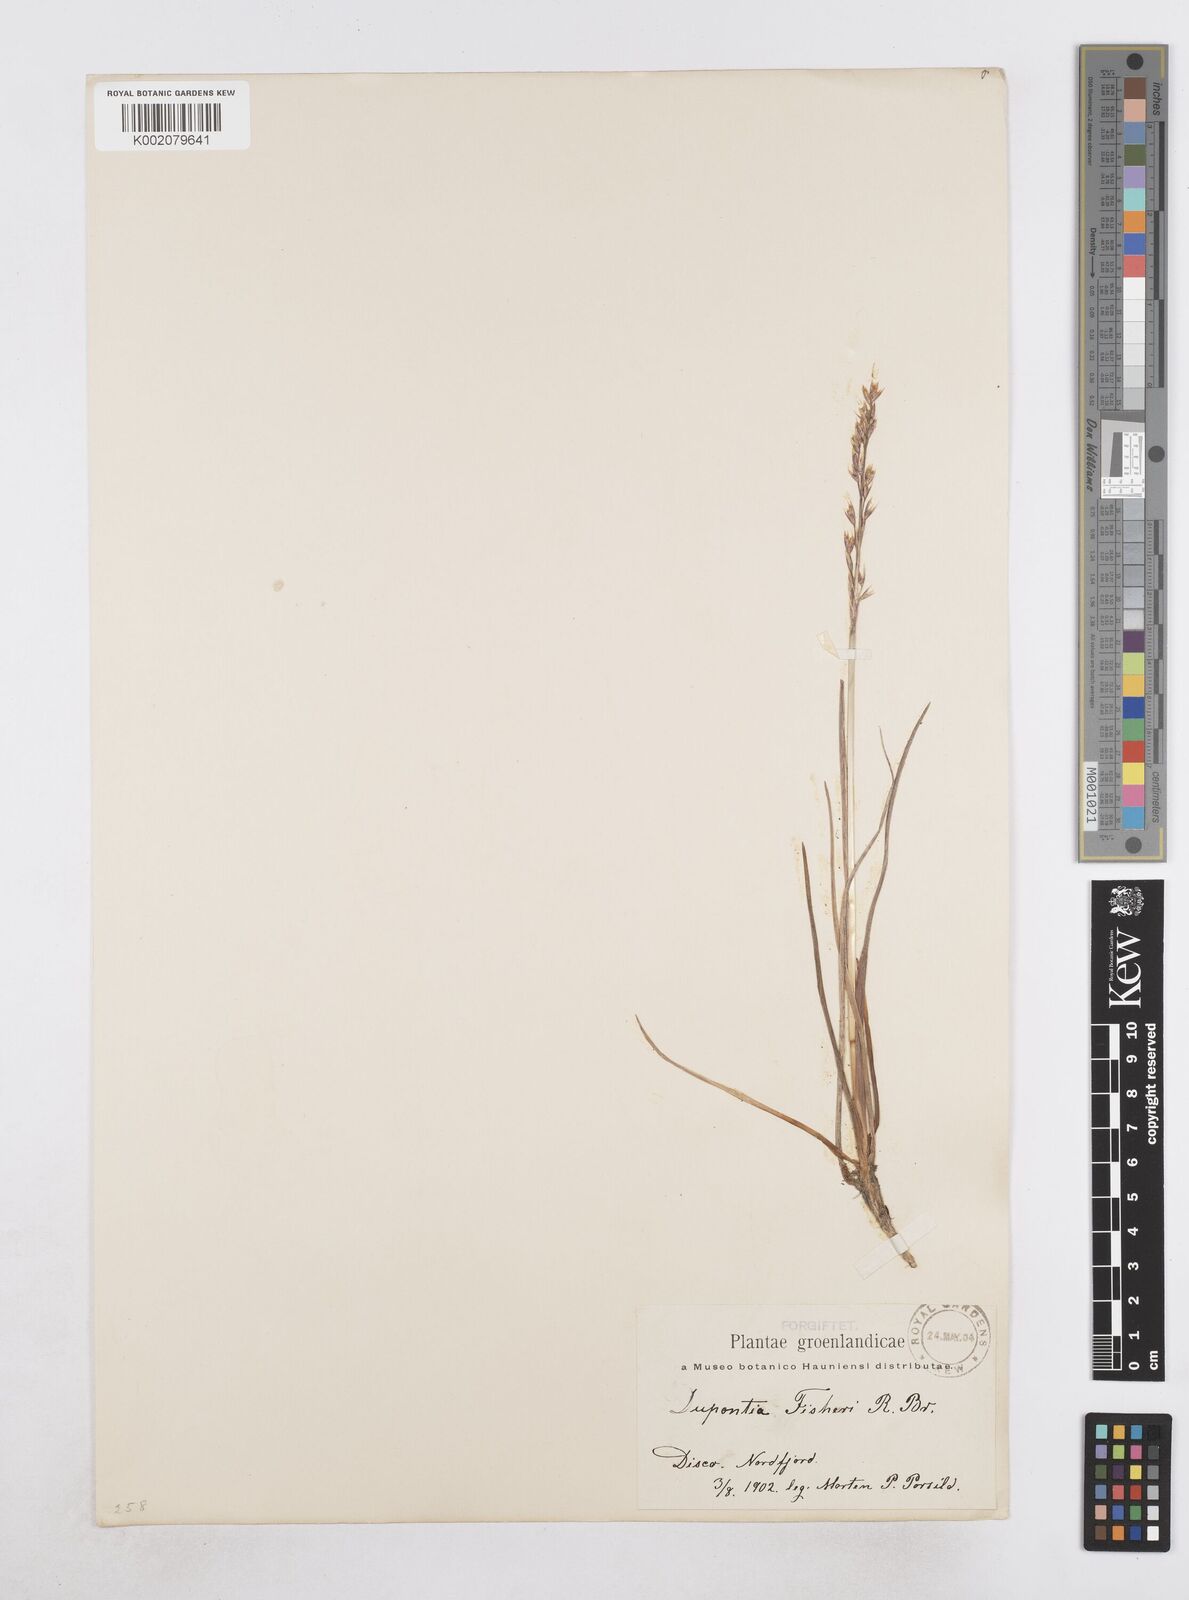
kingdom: Plantae
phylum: Tracheophyta
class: Liliopsida
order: Poales
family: Poaceae
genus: Dupontia
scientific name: Dupontia fisheri
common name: Tundra grass
